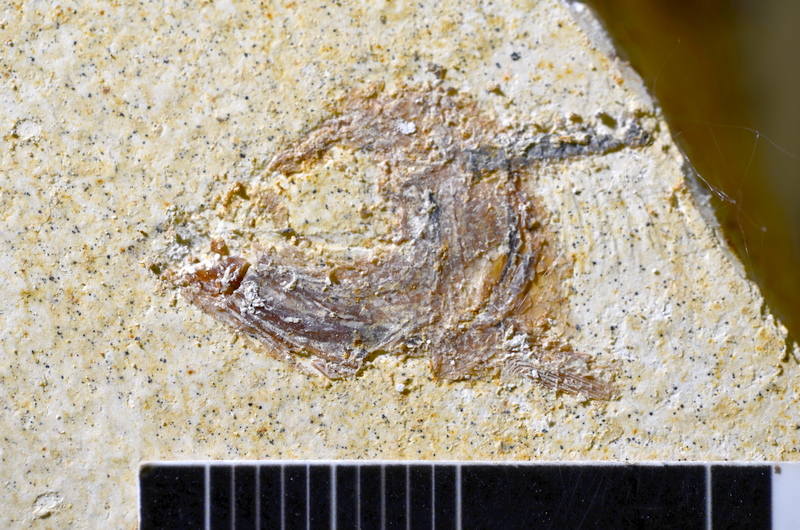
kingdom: Animalia
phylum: Chordata
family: Ascalaboidae
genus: Ebertichthys
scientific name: Ebertichthys ettlingensis
